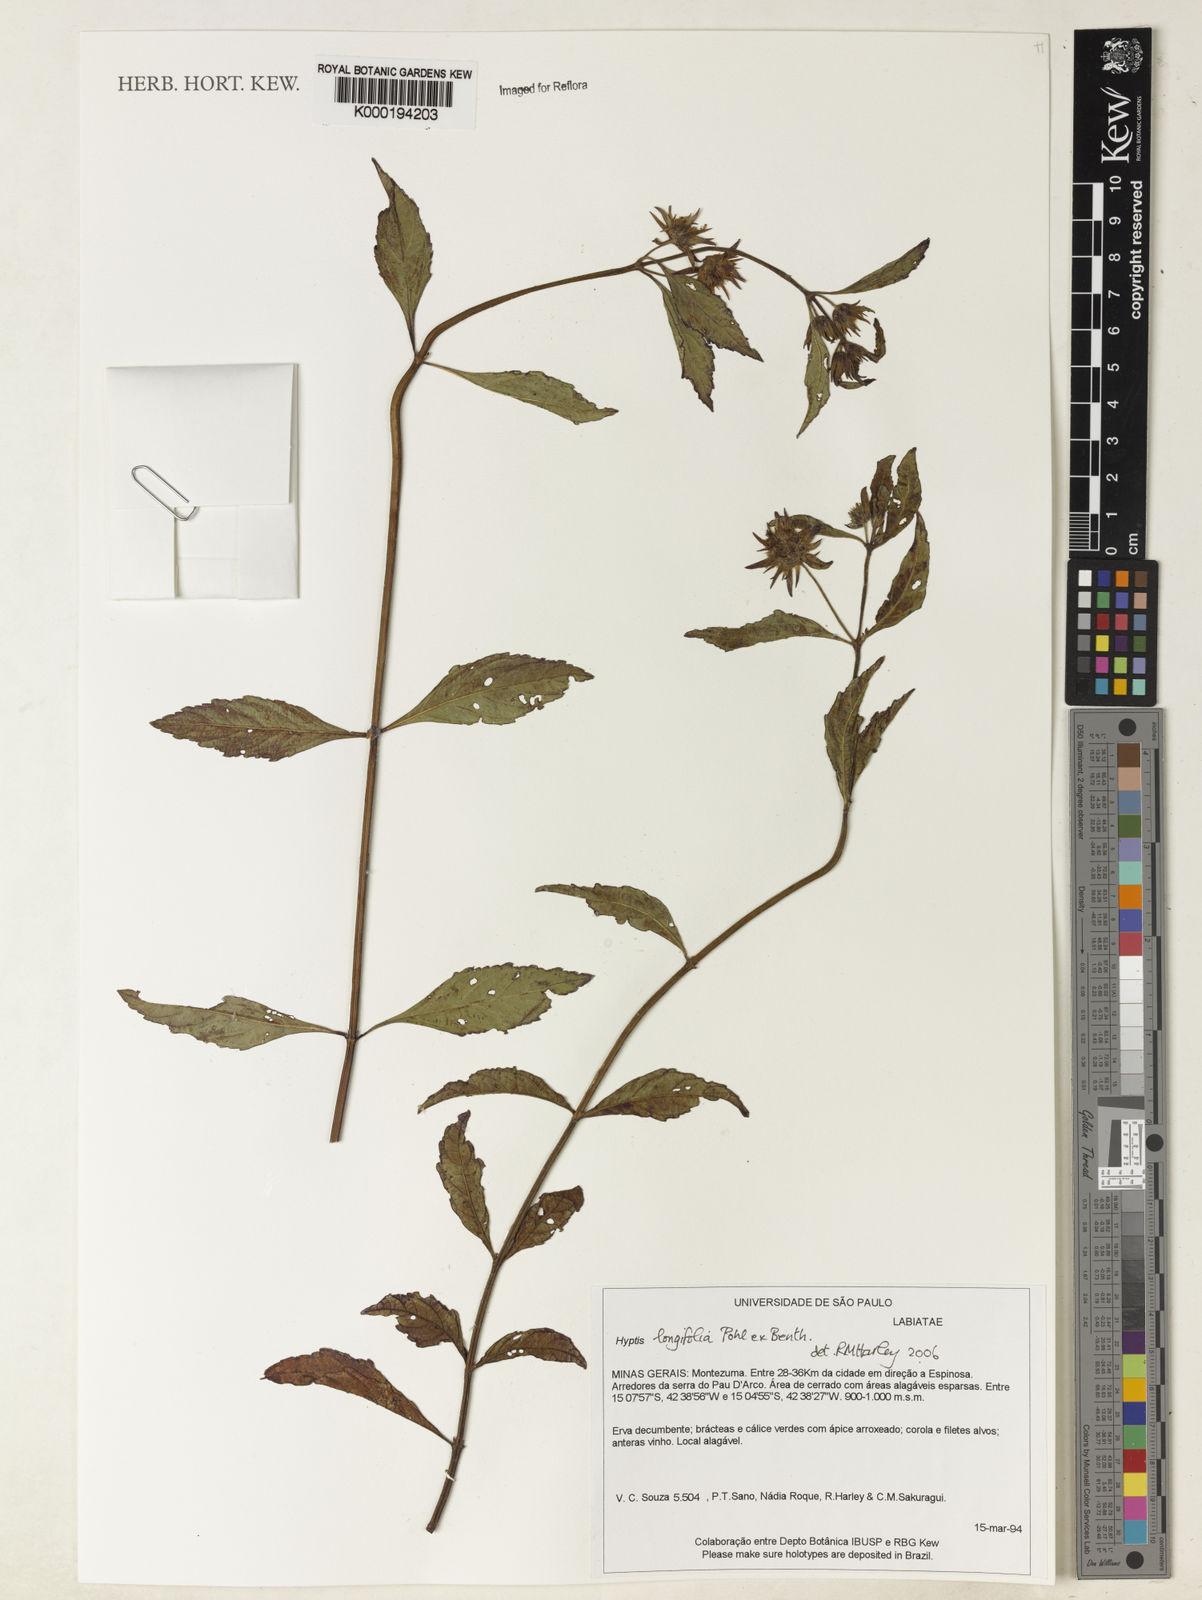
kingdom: Plantae
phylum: Tracheophyta
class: Magnoliopsida
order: Lamiales
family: Lamiaceae
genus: Hyptis
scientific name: Hyptis longifolia
